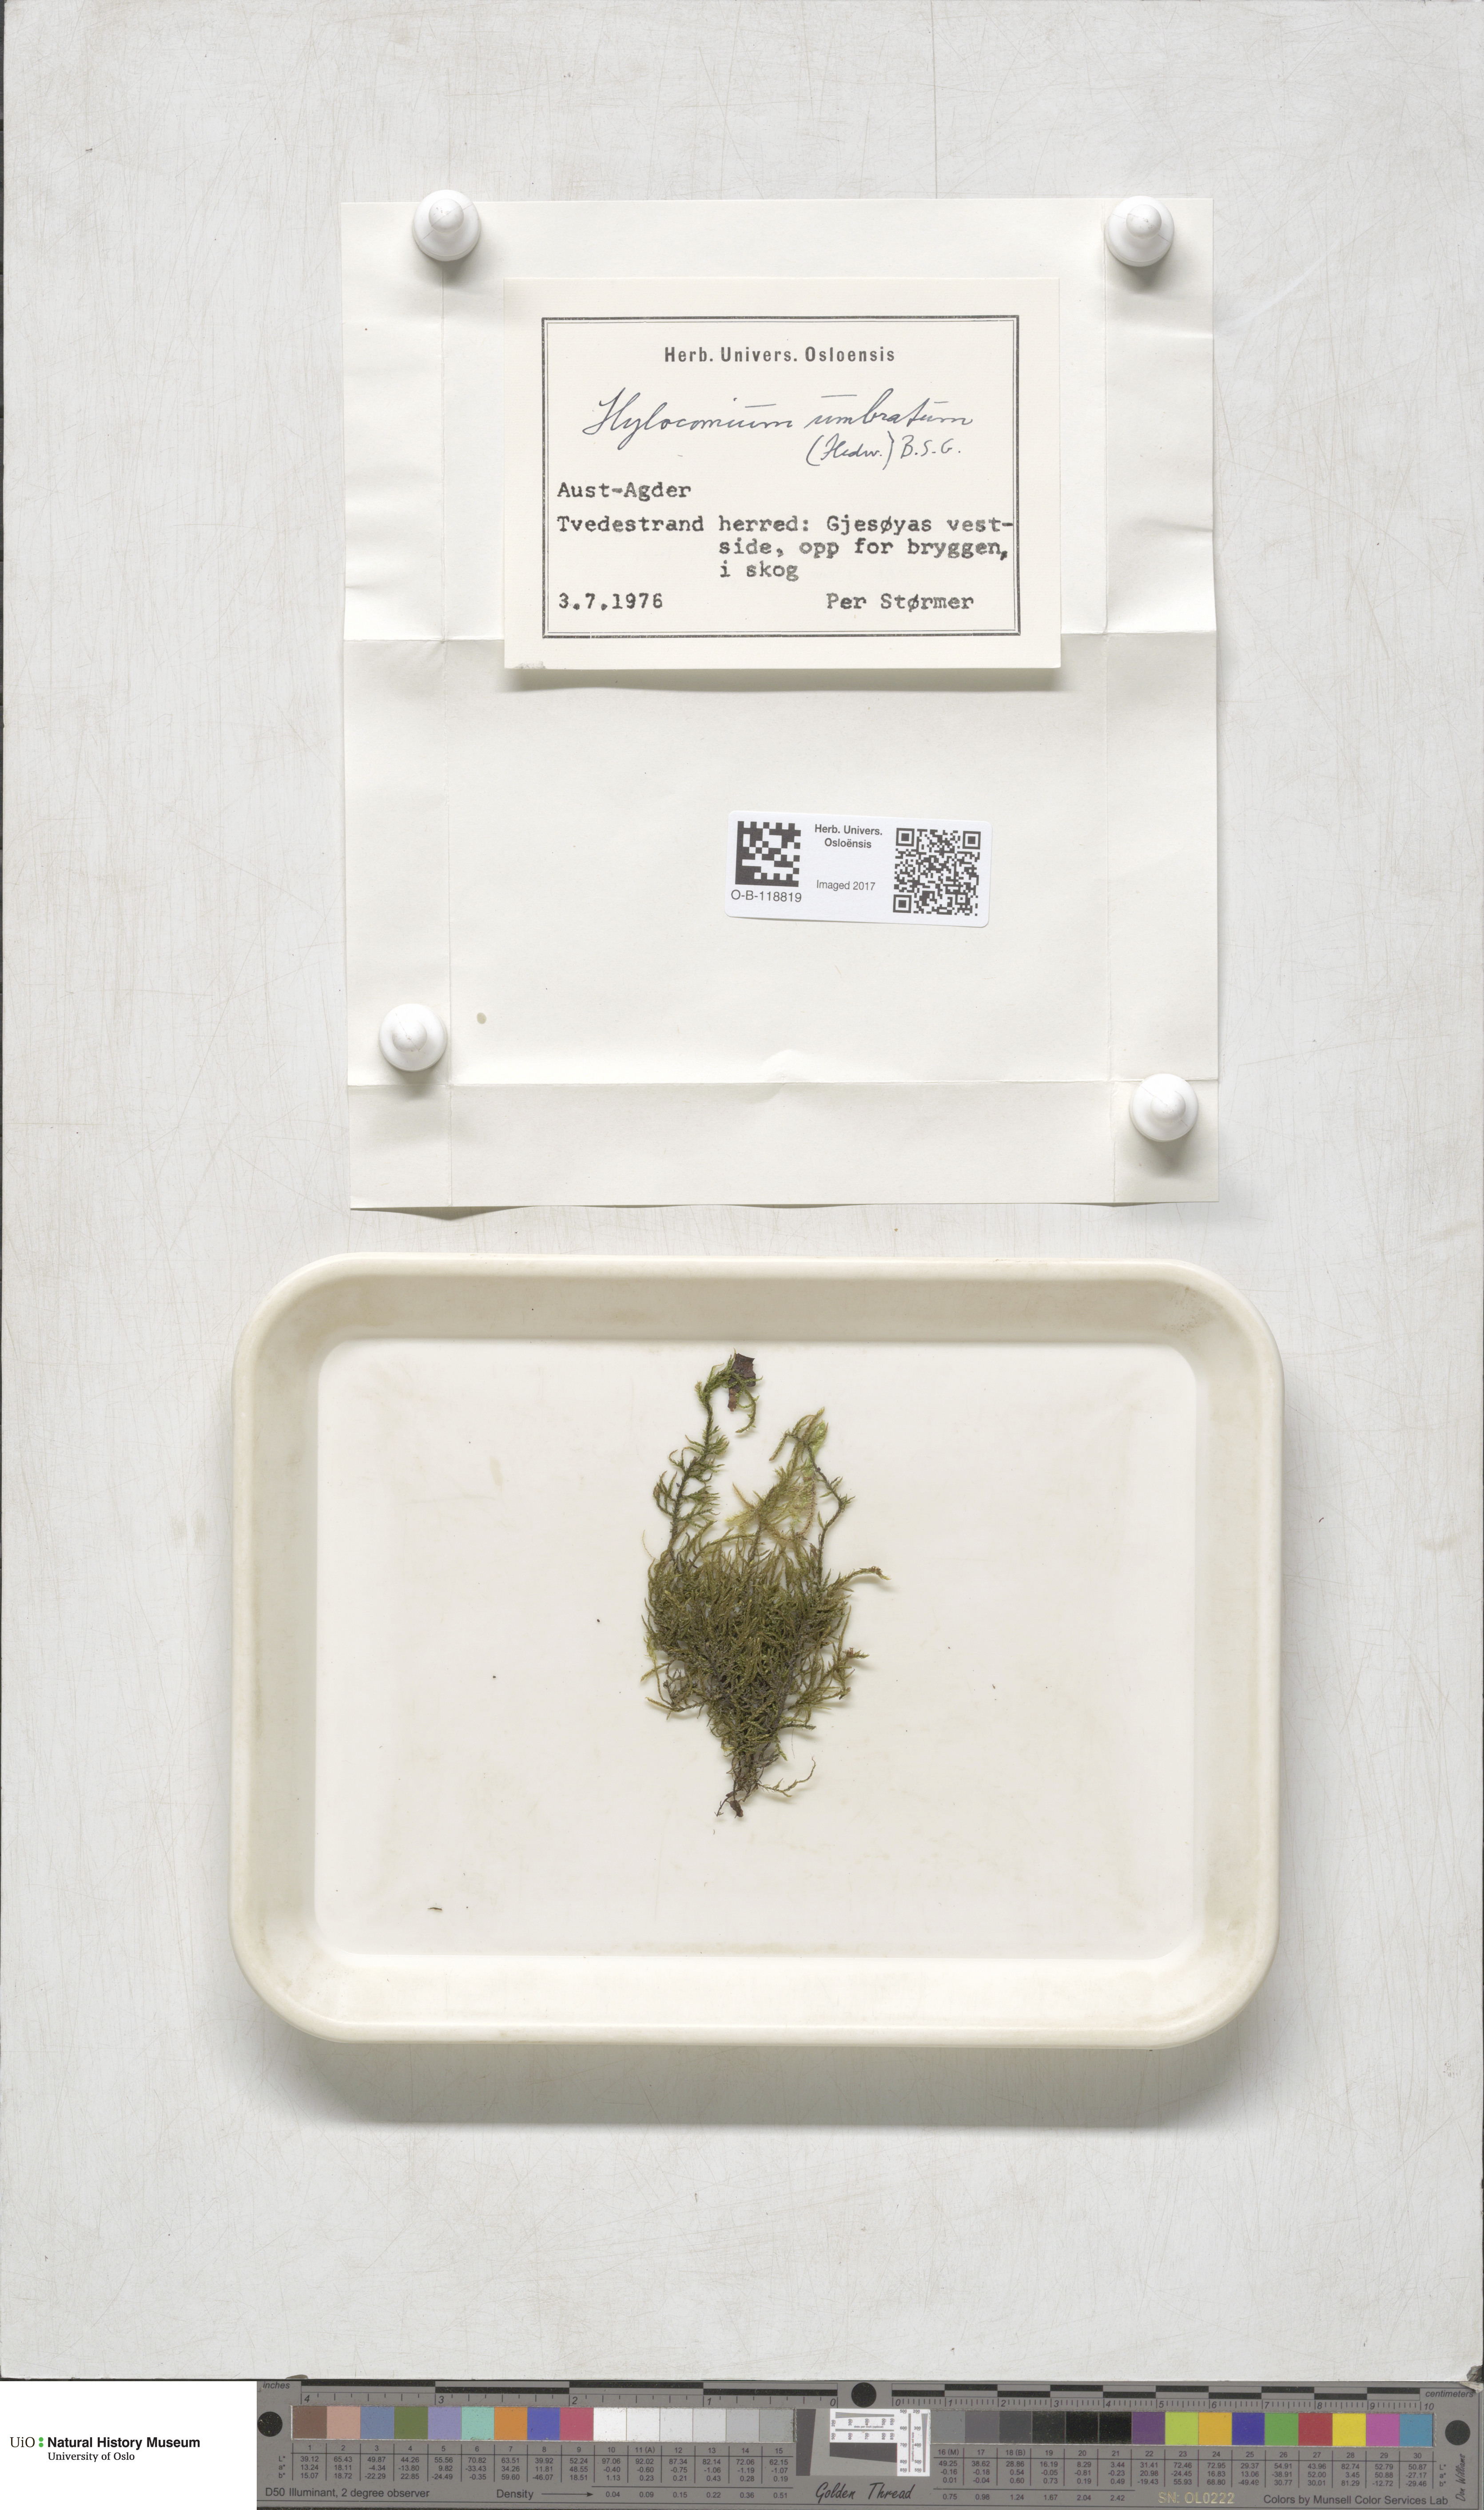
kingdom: Plantae
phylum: Bryophyta
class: Bryopsida
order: Hypnales
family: Hylocomiaceae
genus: Hylocomiastrum
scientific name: Hylocomiastrum umbratum
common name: Shaded woods moss
